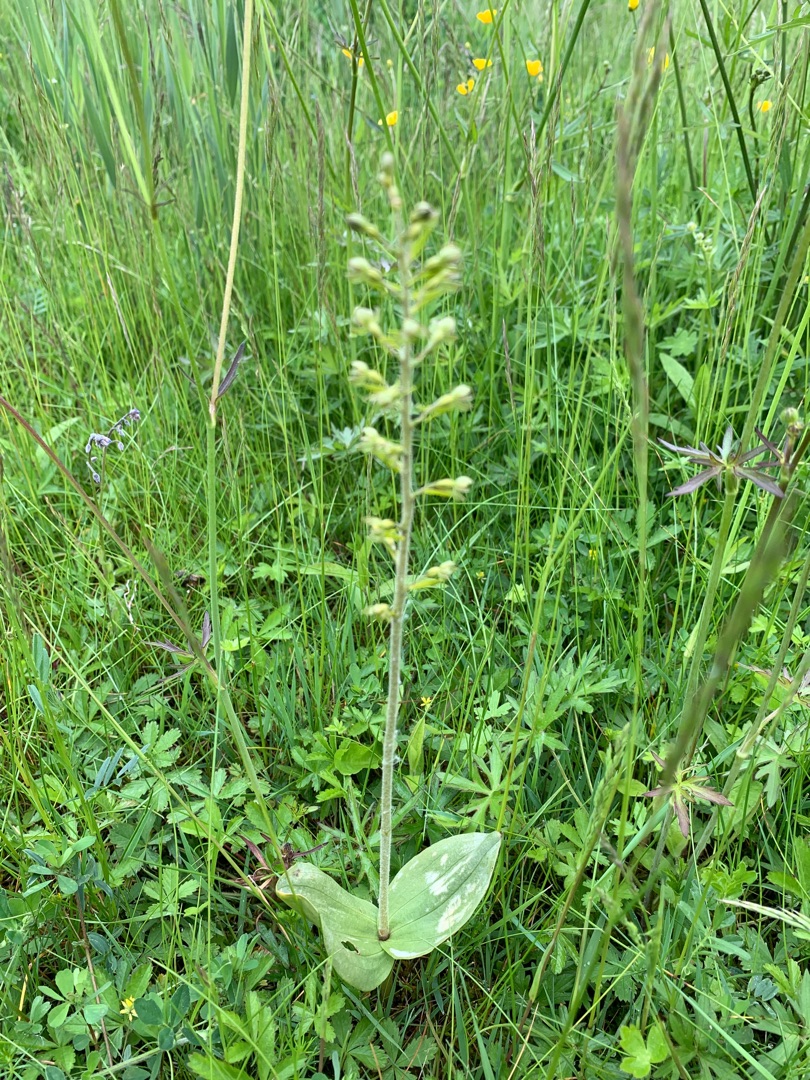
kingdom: Plantae
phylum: Tracheophyta
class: Liliopsida
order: Asparagales
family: Orchidaceae
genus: Neottia
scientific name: Neottia ovata
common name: Ægbladet fliglæbe
